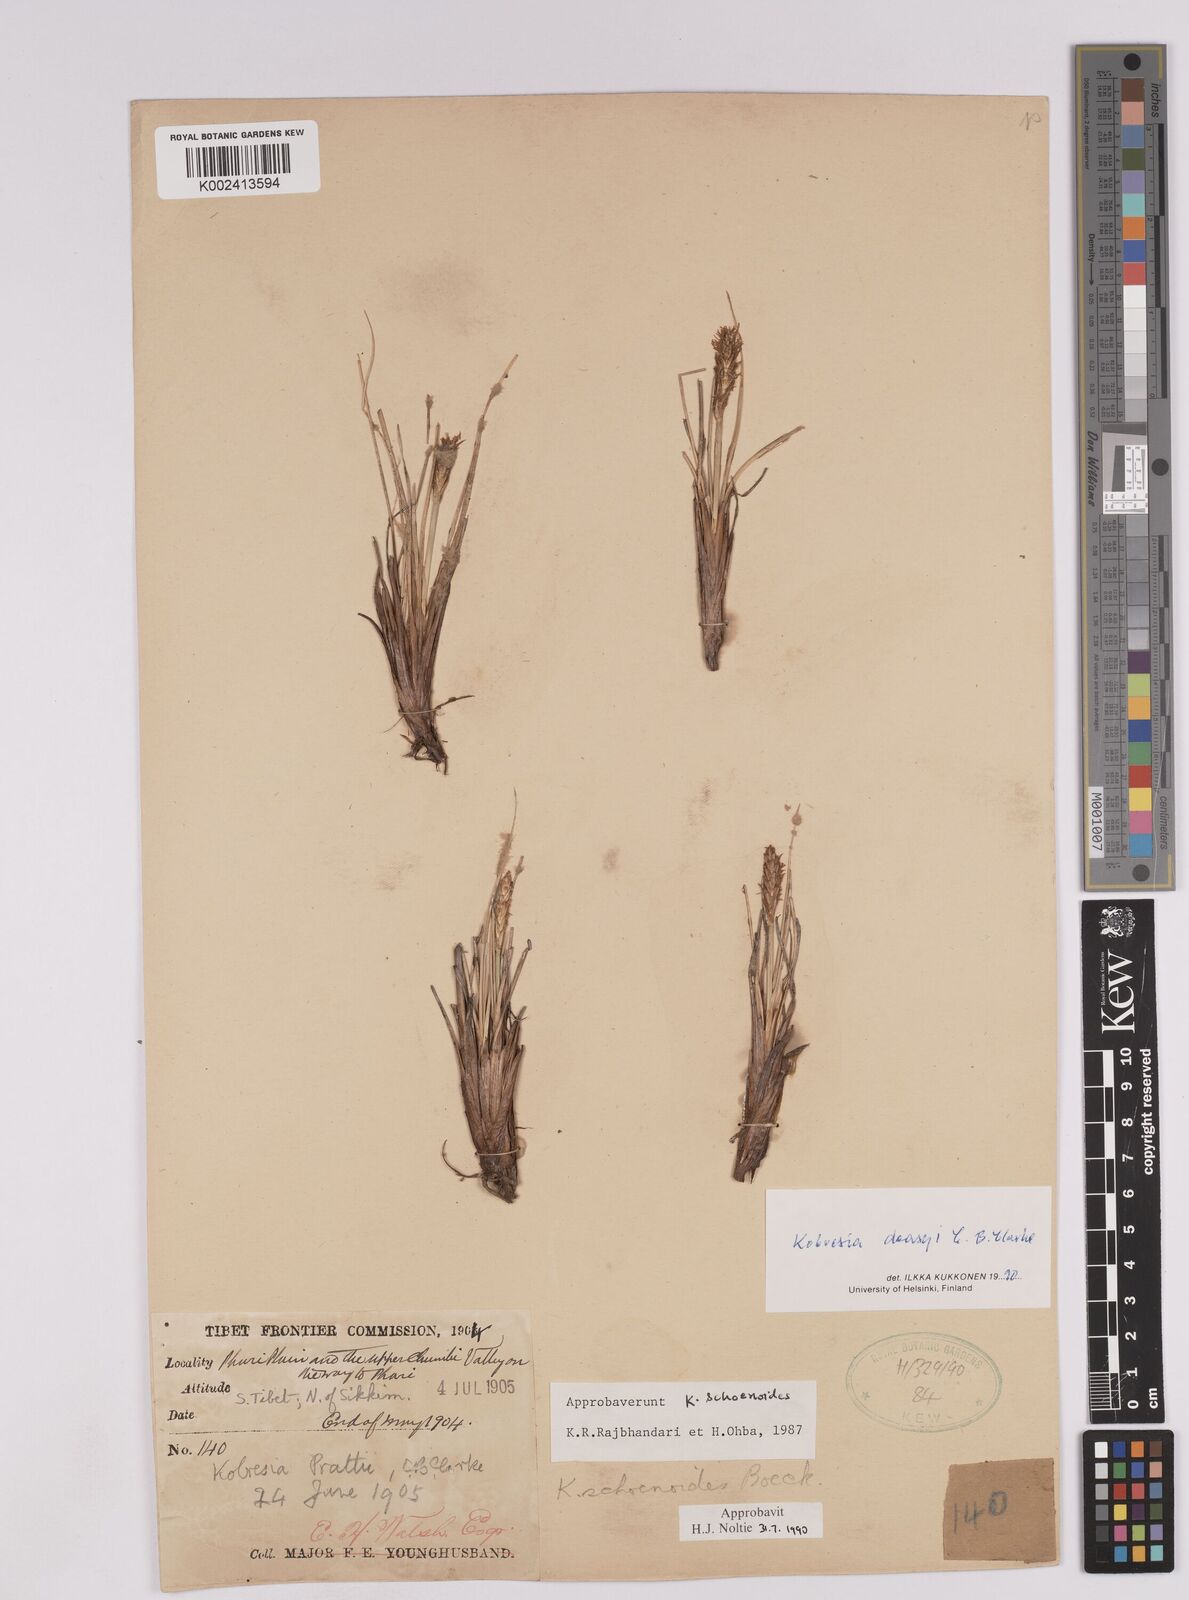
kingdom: Plantae
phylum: Tracheophyta
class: Liliopsida
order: Poales
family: Cyperaceae
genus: Carex
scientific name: Carex deasyi
